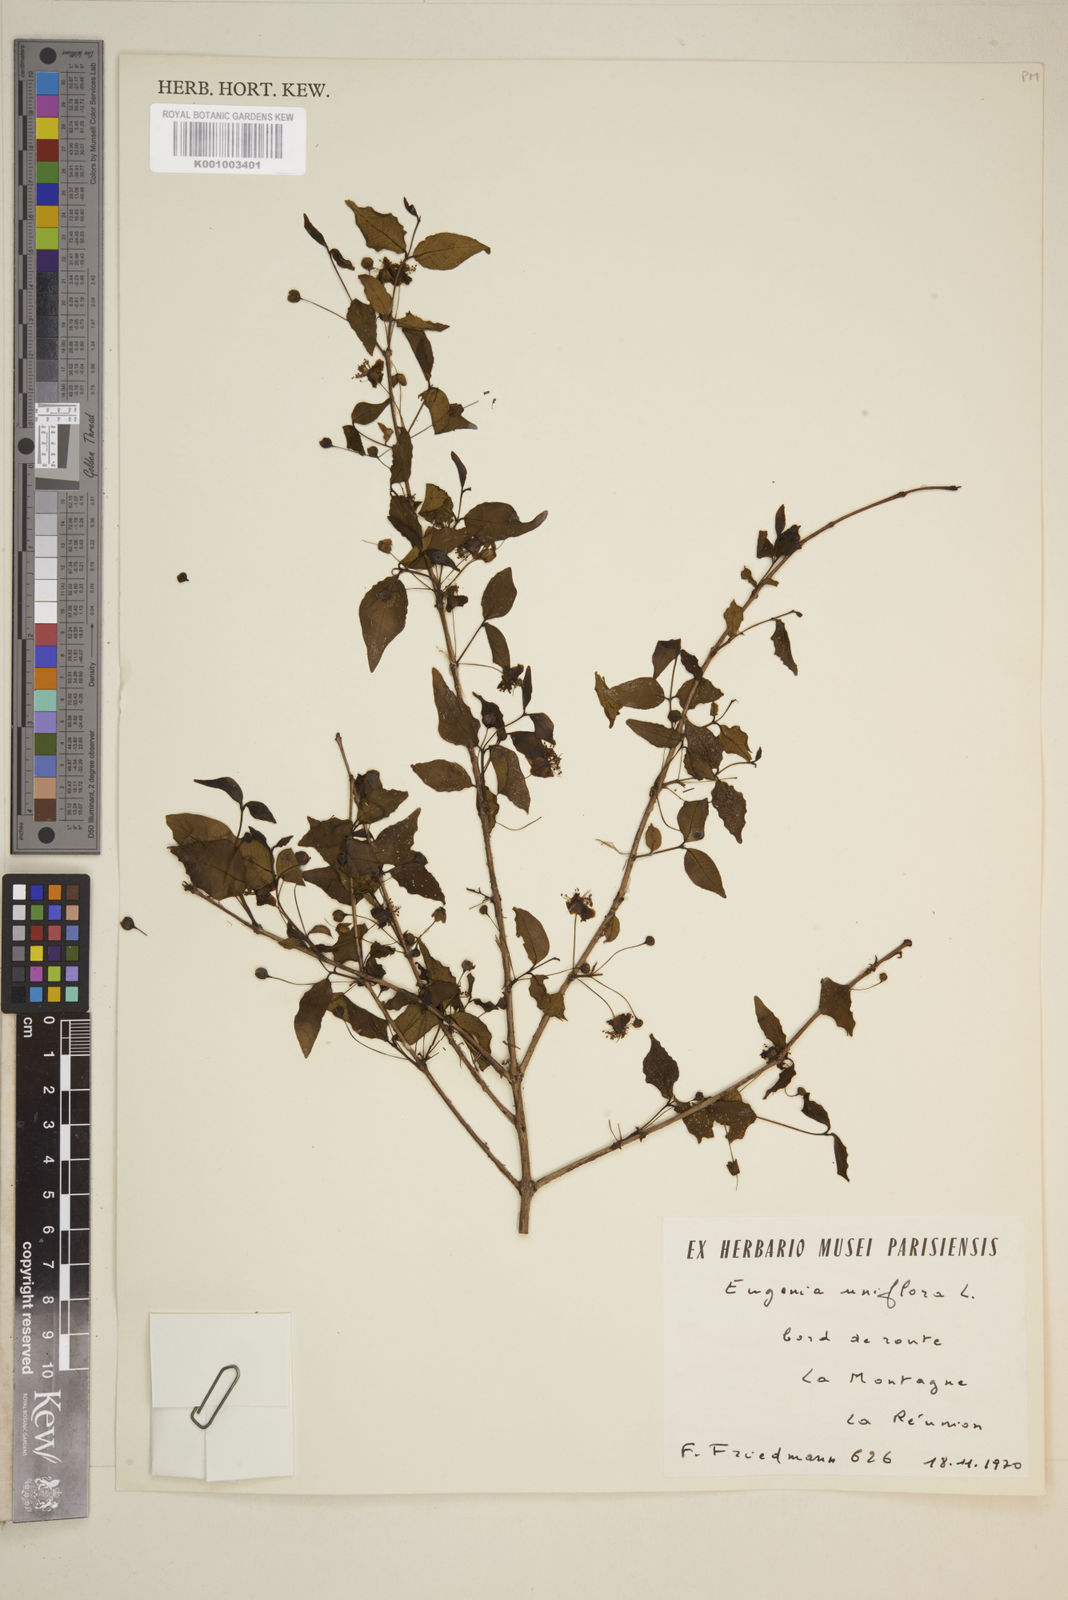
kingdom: Plantae
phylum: Tracheophyta
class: Magnoliopsida
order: Myrtales
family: Myrtaceae
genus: Eugenia
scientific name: Eugenia uniflora
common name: Surinam cherry
